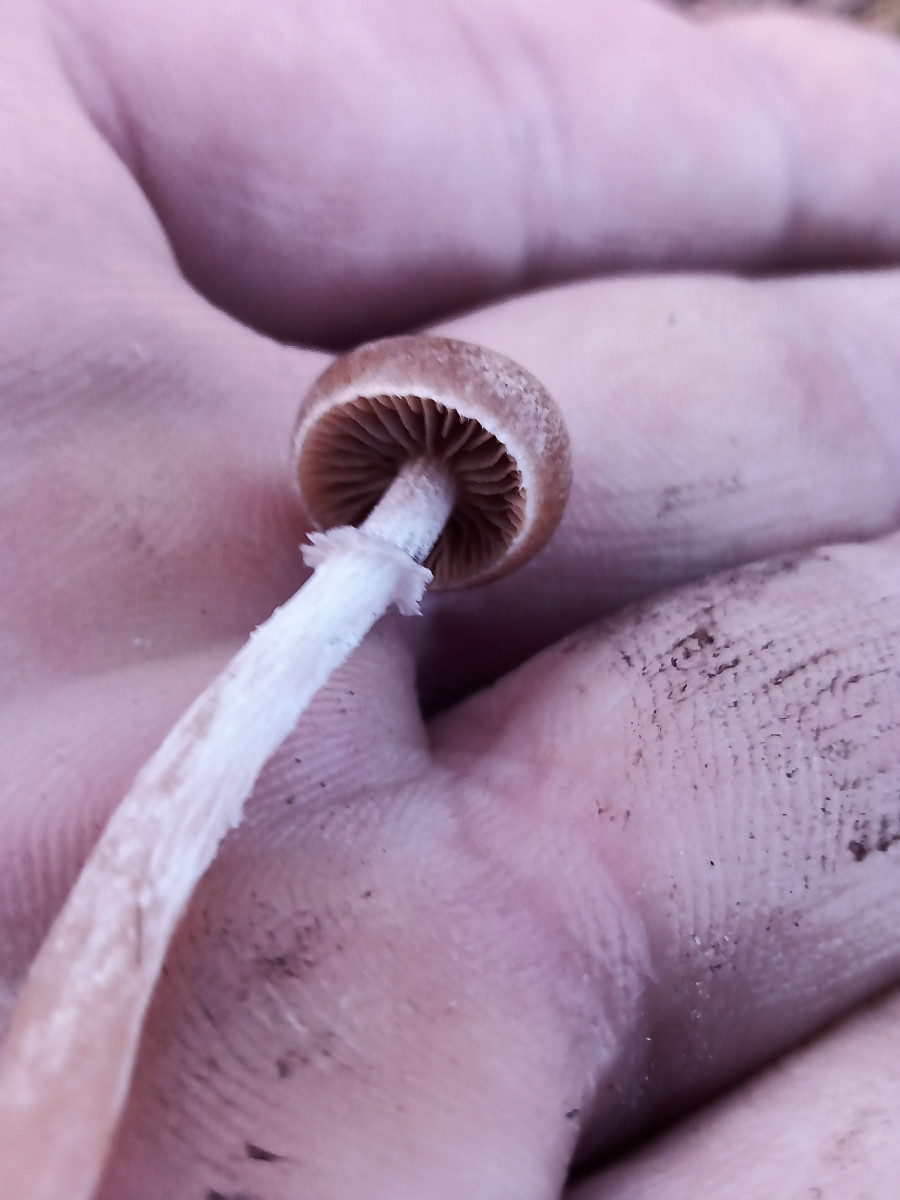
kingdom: Fungi
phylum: Basidiomycota
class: Agaricomycetes
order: Agaricales
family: Strophariaceae
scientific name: Strophariaceae
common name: bredbladfamilien
